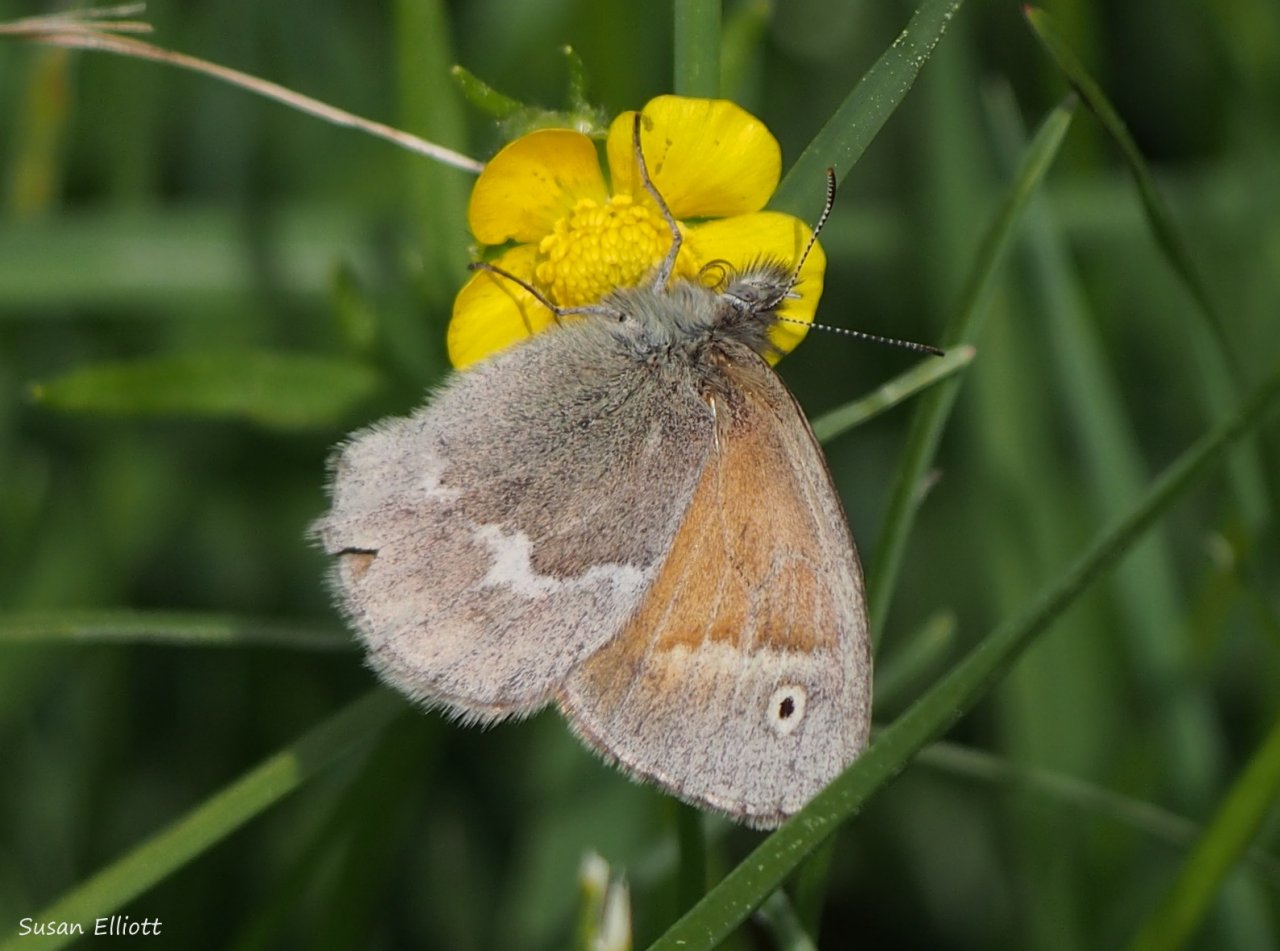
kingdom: Animalia
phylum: Arthropoda
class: Insecta
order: Lepidoptera
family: Nymphalidae
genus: Coenonympha
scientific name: Coenonympha tullia
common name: Large Heath
